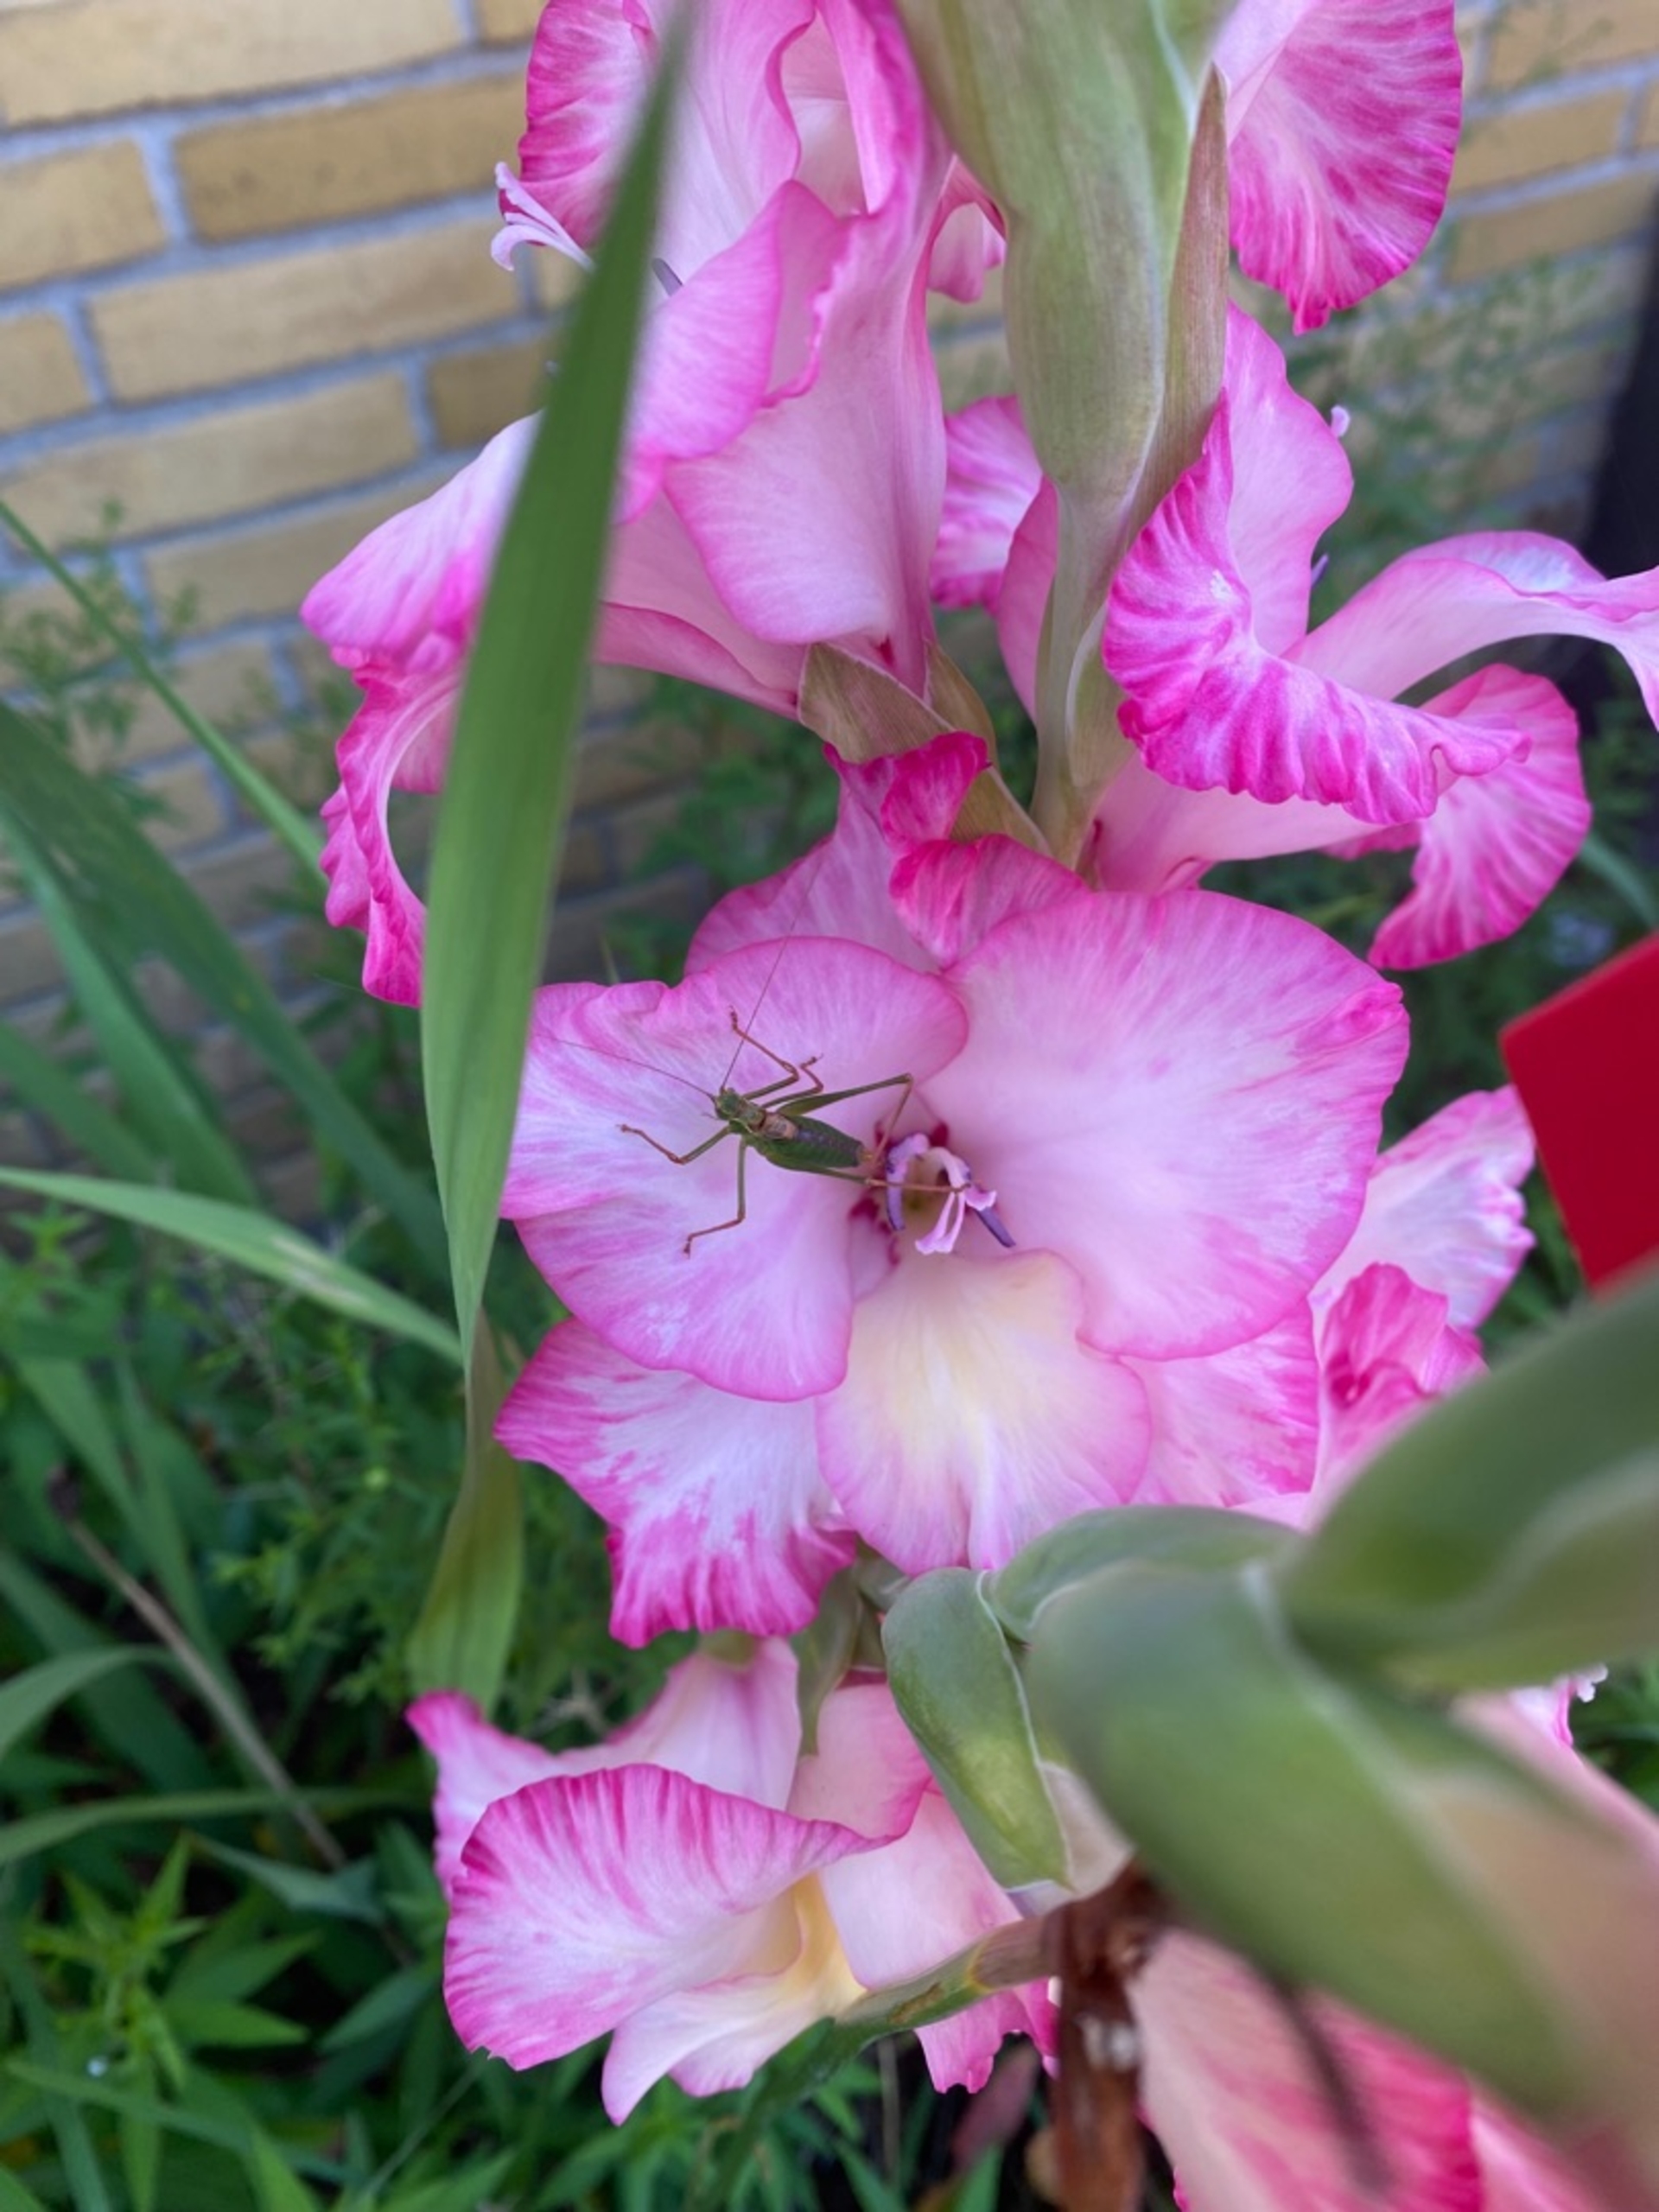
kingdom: Animalia
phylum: Arthropoda
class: Insecta
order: Orthoptera
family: Tettigoniidae
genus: Leptophyes
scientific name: Leptophyes punctatissima
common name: Krumknivgræshoppe
